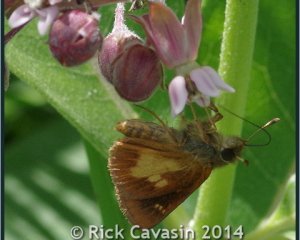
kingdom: Animalia
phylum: Arthropoda
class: Insecta
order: Lepidoptera
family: Hesperiidae
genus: Poanes
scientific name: Poanes massasoit
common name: Mulberry Wing
